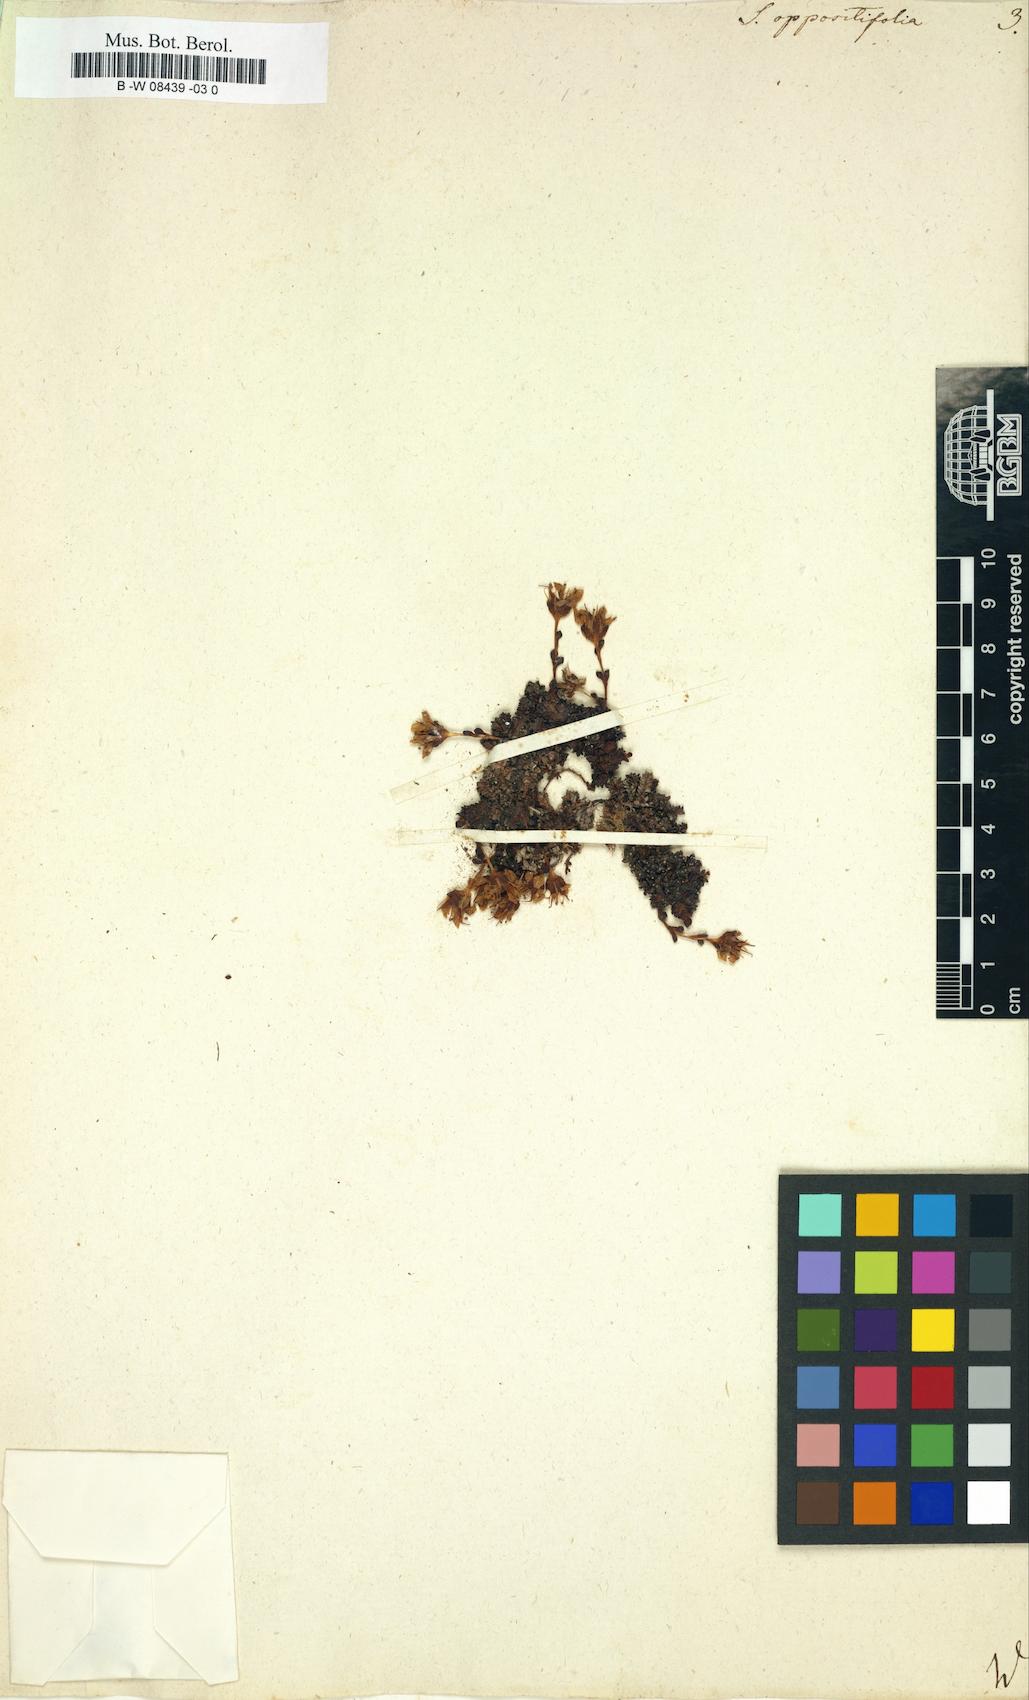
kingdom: Plantae
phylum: Tracheophyta
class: Magnoliopsida
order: Saxifragales
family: Saxifragaceae
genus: Saxifraga
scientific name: Saxifraga oppositifolia
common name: Purple saxifrage
